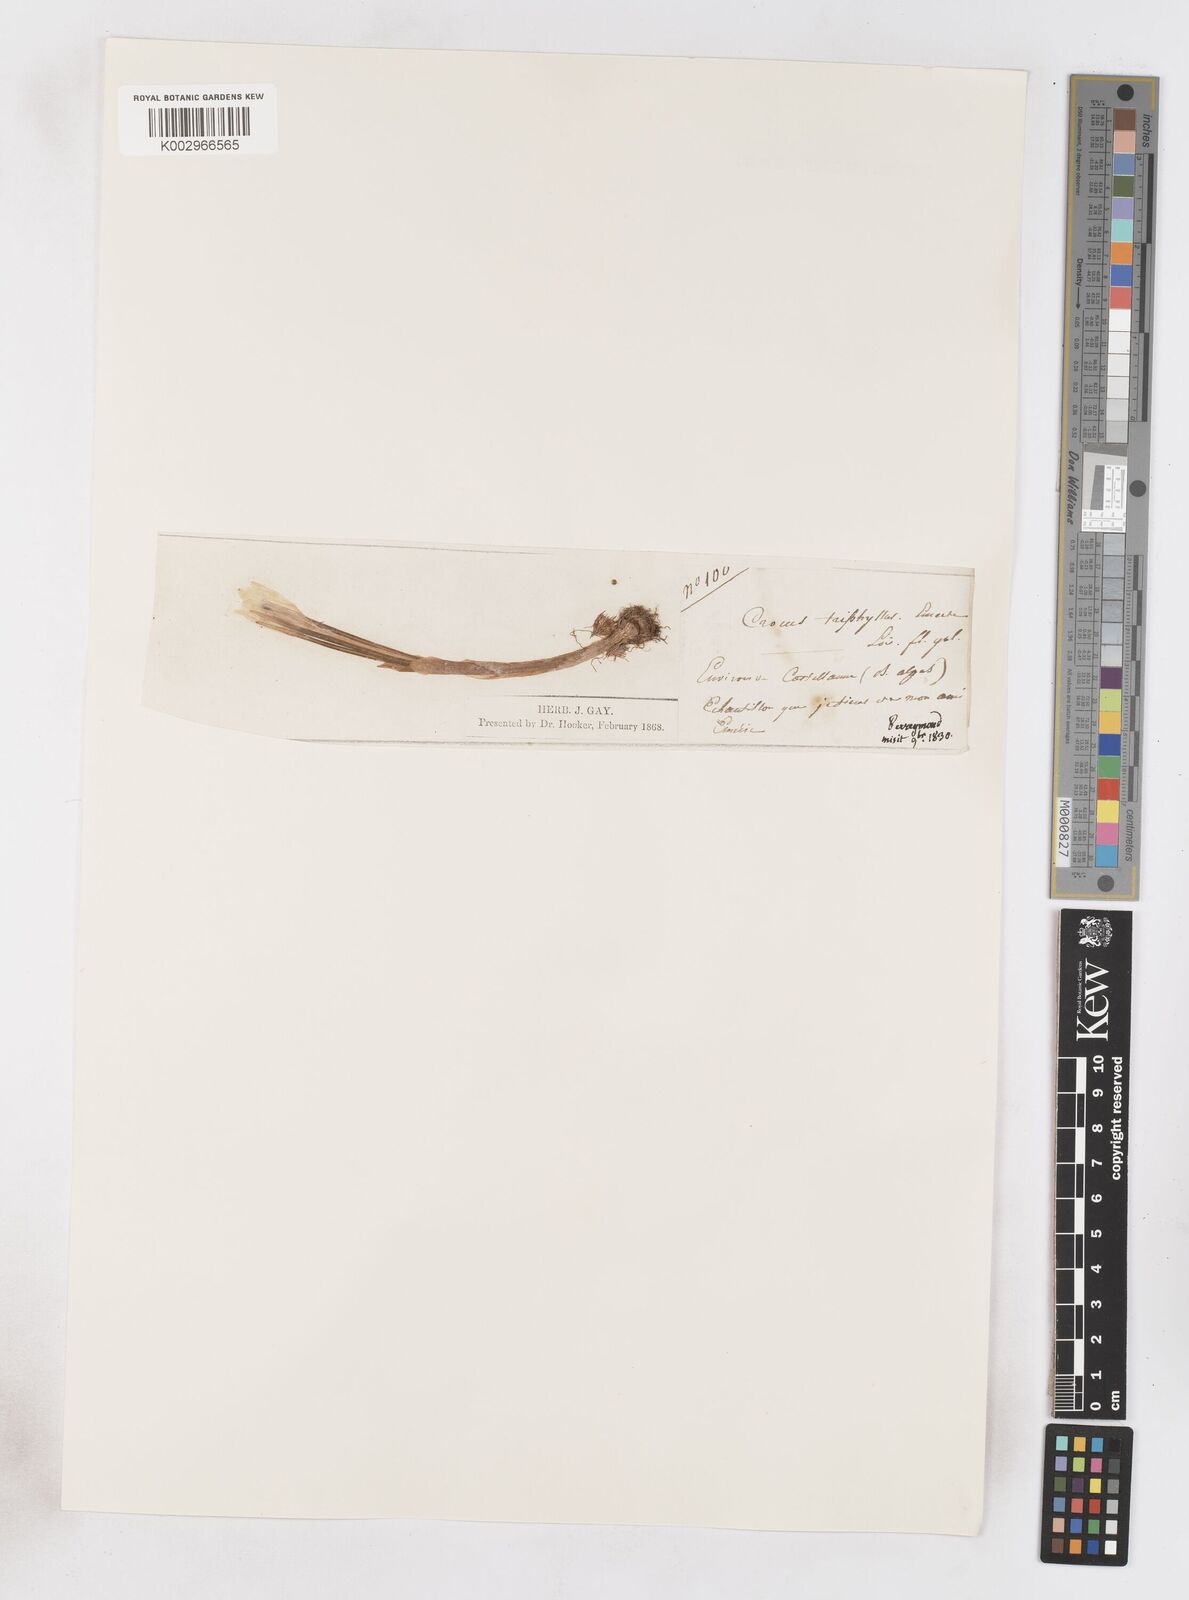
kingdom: Plantae
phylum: Tracheophyta
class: Liliopsida
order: Asparagales
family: Iridaceae
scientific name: Iridaceae
